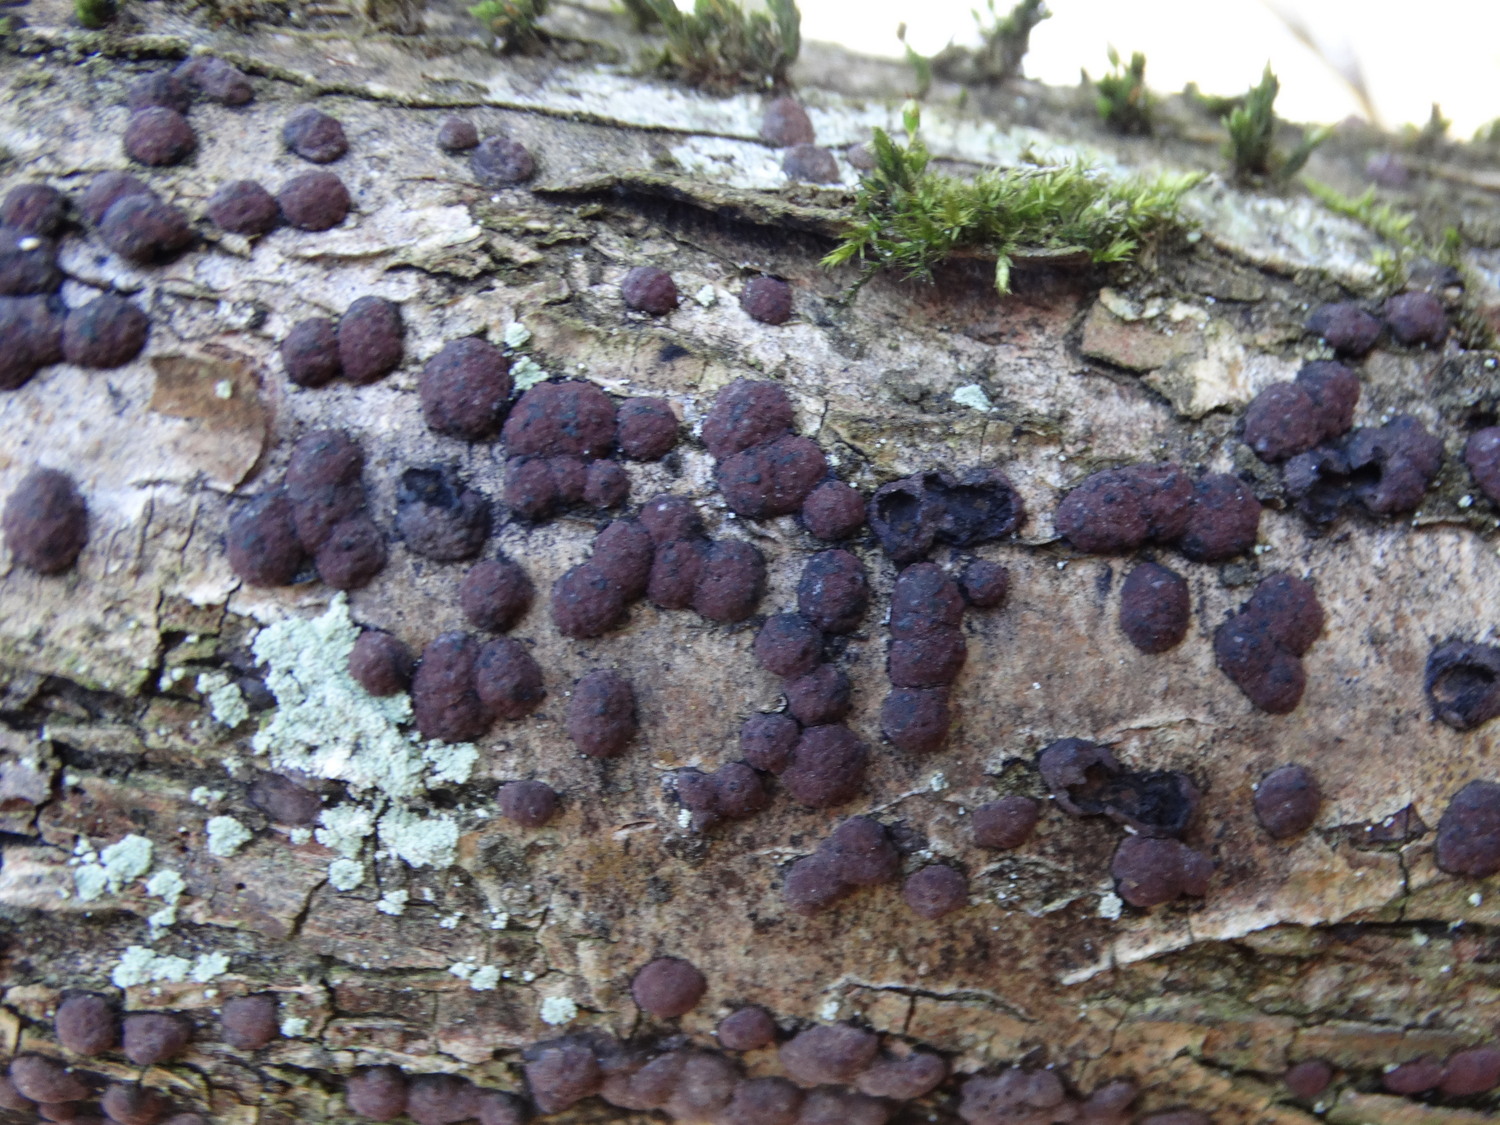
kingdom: Fungi
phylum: Ascomycota
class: Sordariomycetes
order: Xylariales
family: Hypoxylaceae
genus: Hypoxylon
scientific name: Hypoxylon fuscum
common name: kegleformet kulbær
